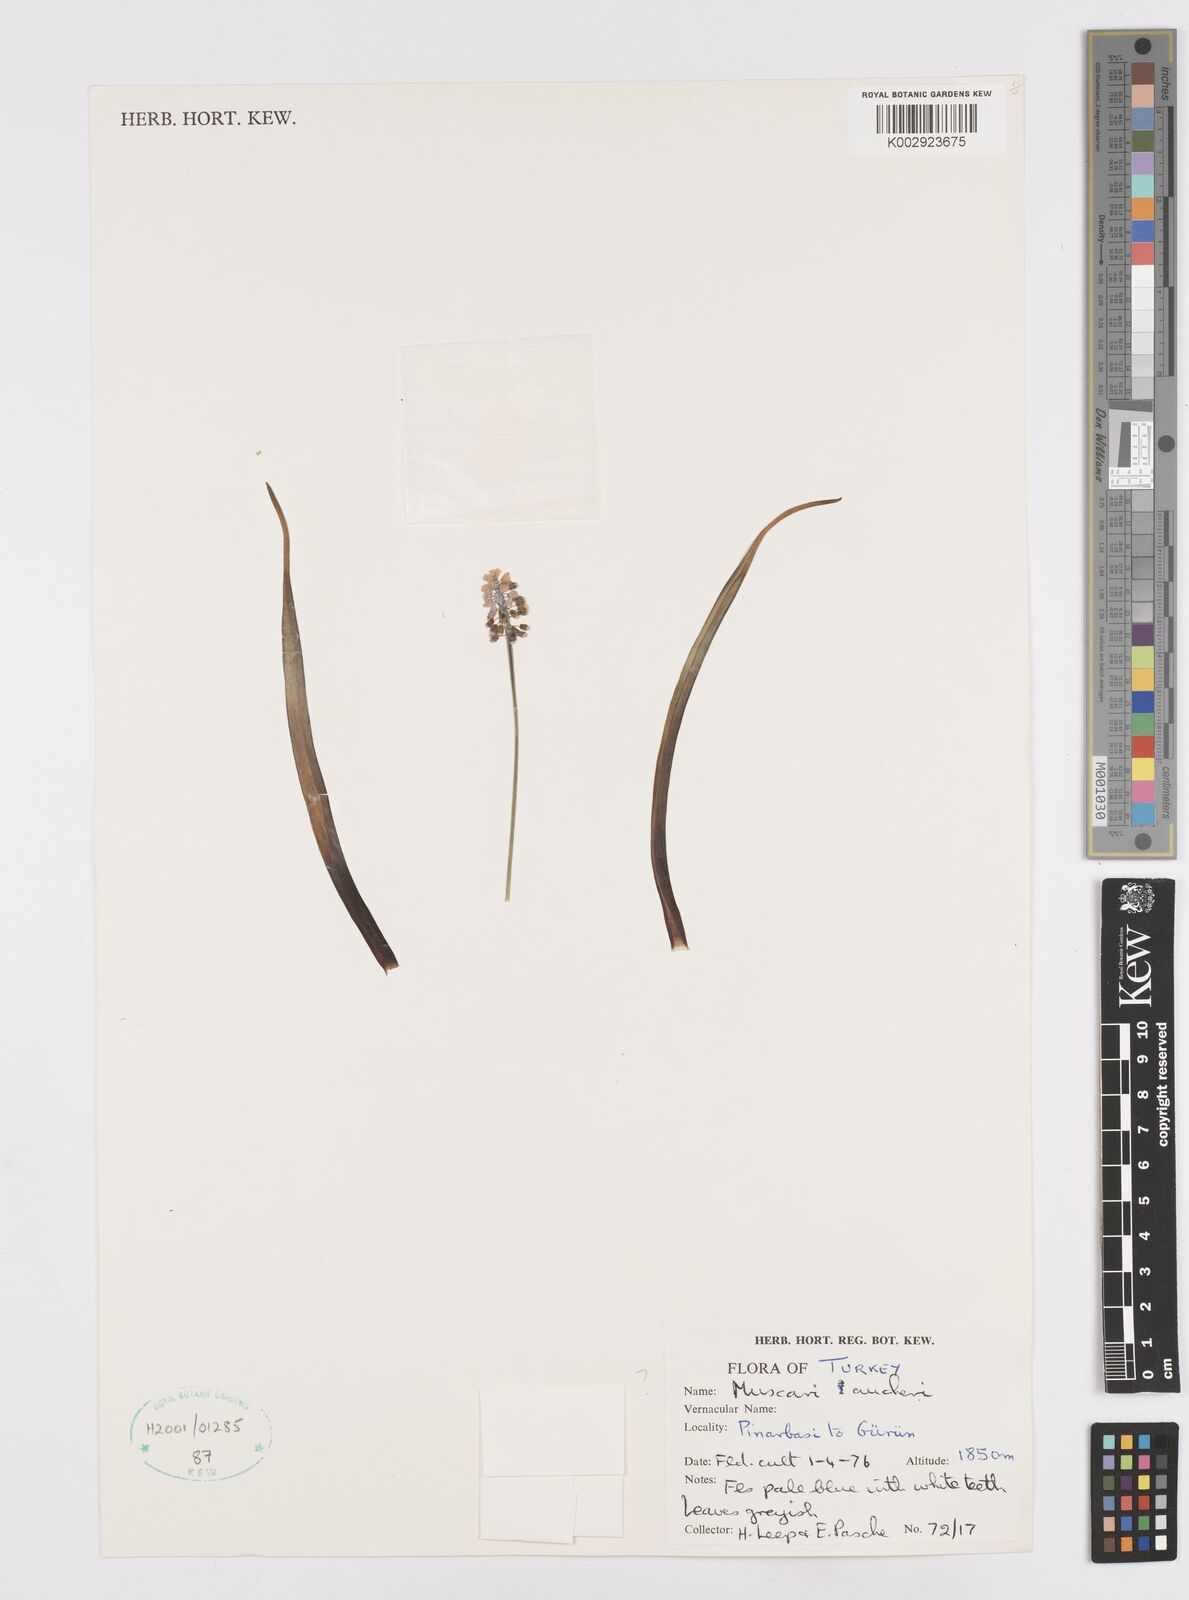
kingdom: Plantae
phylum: Tracheophyta
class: Liliopsida
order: Asparagales
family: Asparagaceae
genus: Muscari
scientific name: Muscari aucheri
